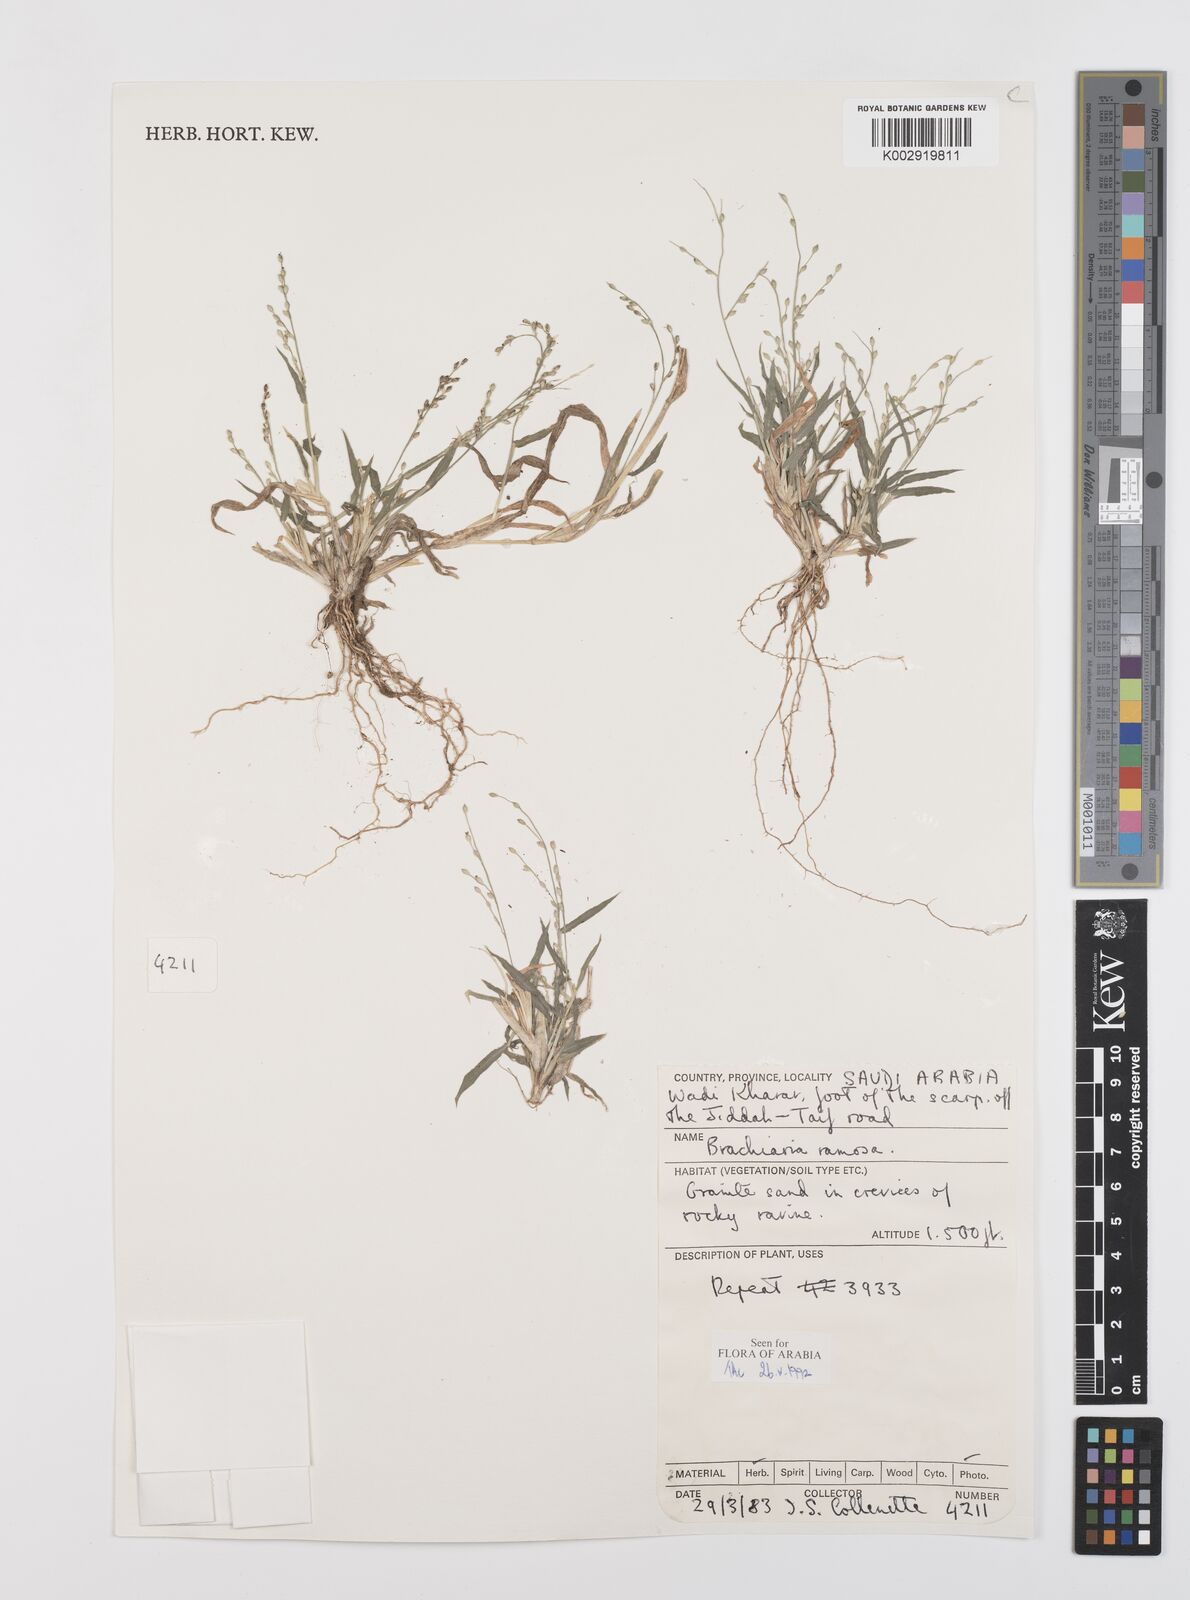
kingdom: Plantae
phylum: Tracheophyta
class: Liliopsida
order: Poales
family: Poaceae
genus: Urochloa
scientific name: Urochloa ramosa
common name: Browntop millet
